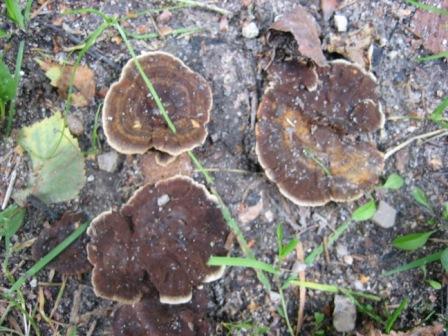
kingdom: Fungi
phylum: Basidiomycota
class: Agaricomycetes
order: Hymenochaetales
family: Hymenochaetaceae
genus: Coltricia
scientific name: Coltricia perennis
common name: almindelig sandporesvamp
